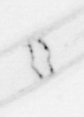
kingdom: Animalia
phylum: Chordata
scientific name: Chordata
